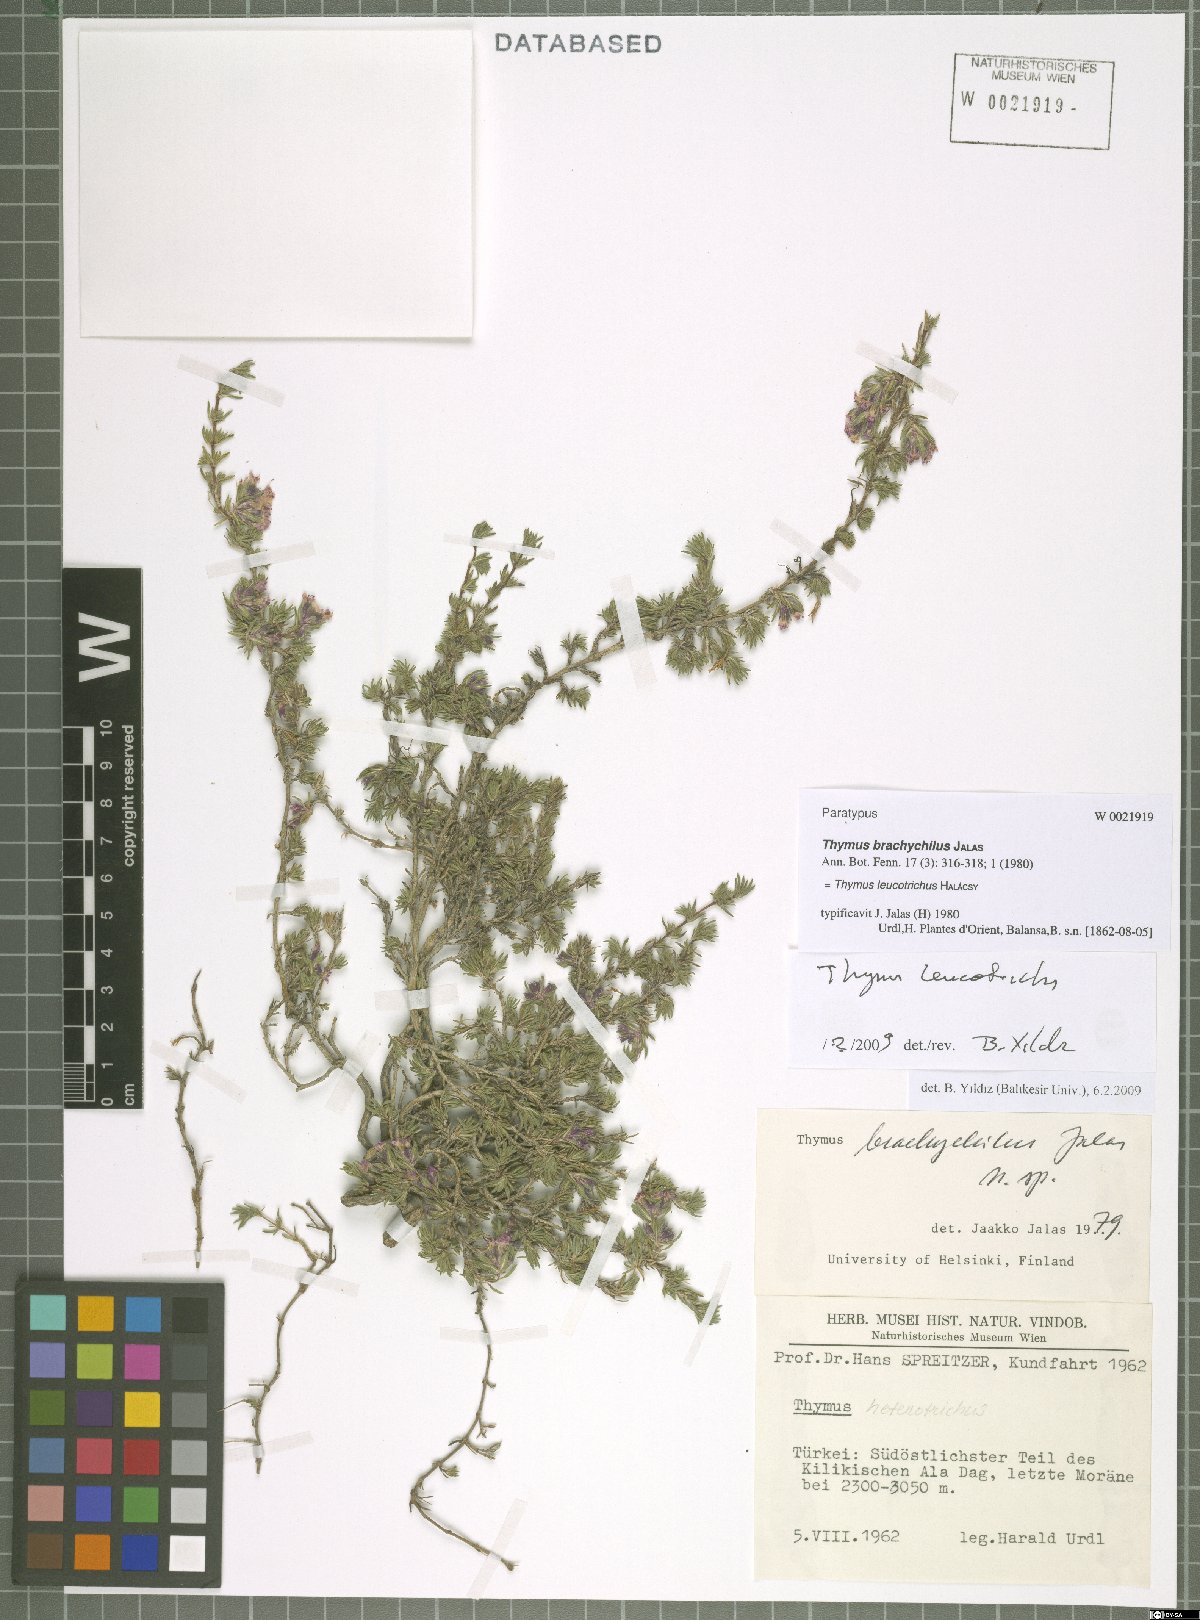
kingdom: Plantae
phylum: Tracheophyta
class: Magnoliopsida
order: Lamiales
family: Lamiaceae
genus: Thymus
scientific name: Thymus leucotrichus
